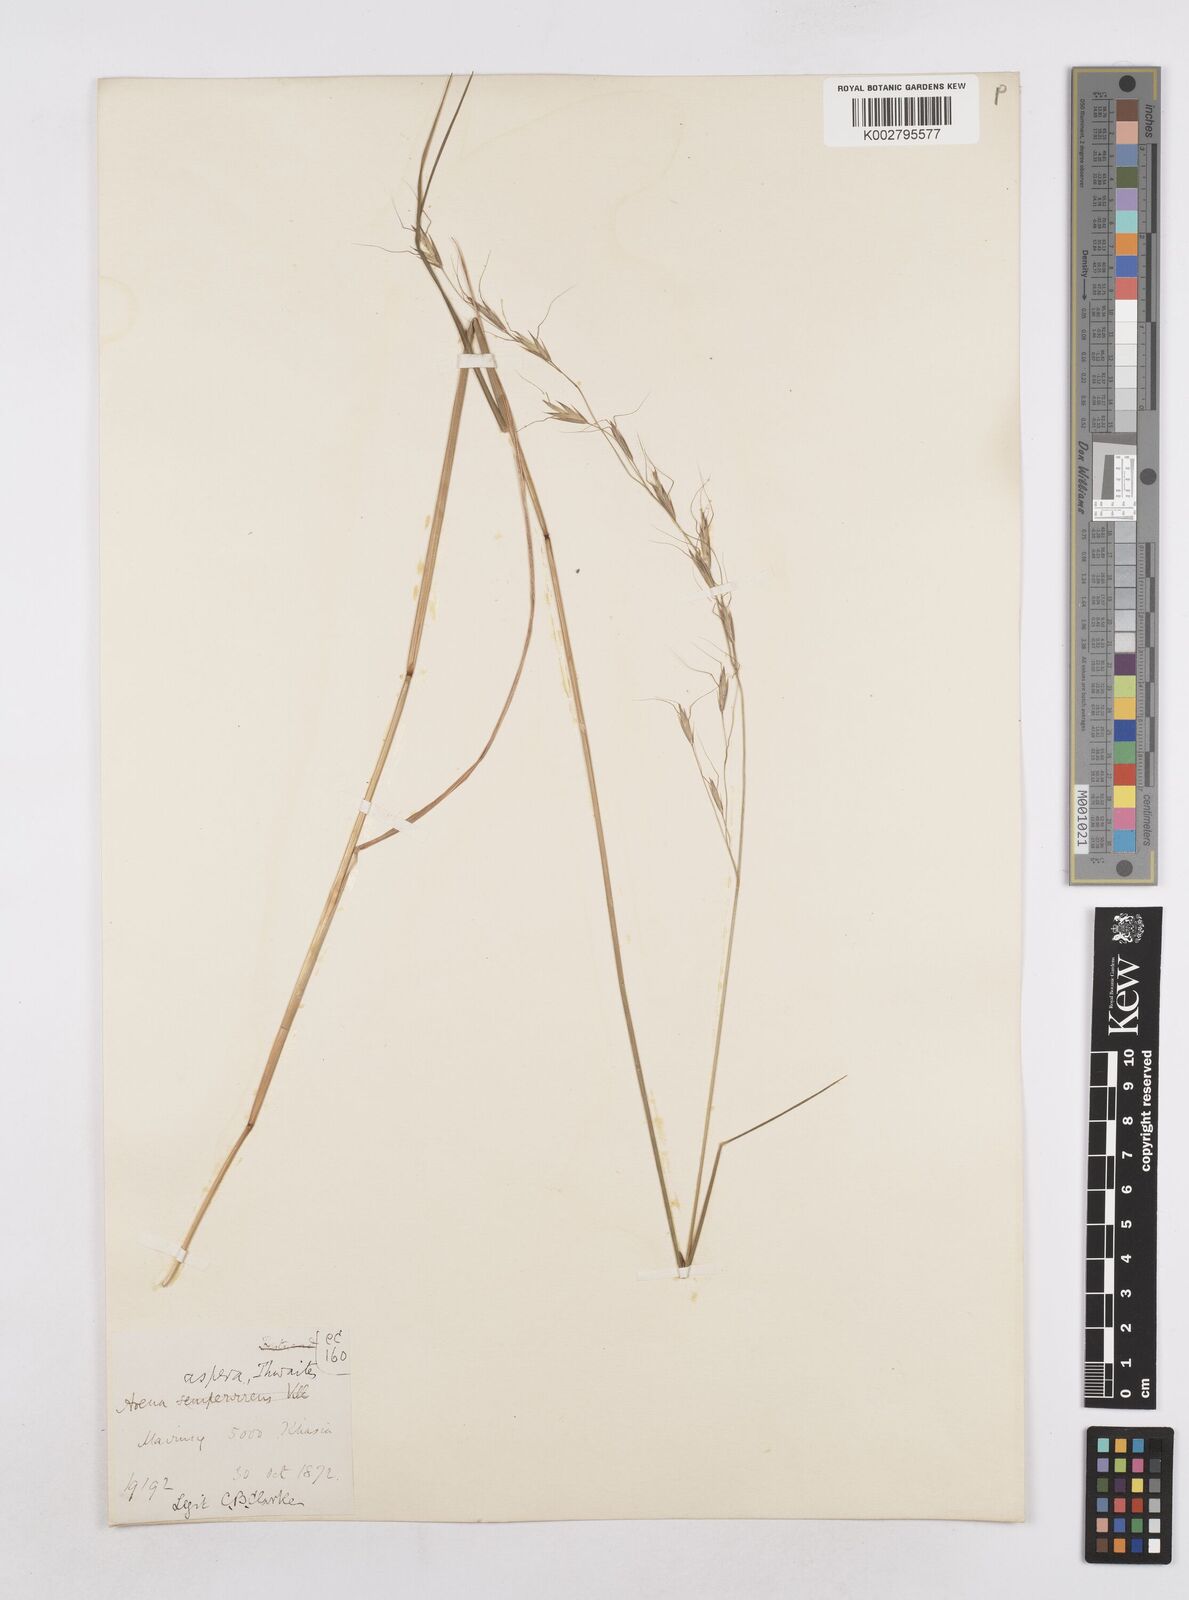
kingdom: Plantae
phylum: Tracheophyta
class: Liliopsida
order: Poales
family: Poaceae
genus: Trisetopsis
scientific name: Trisetopsis junghuhnii
